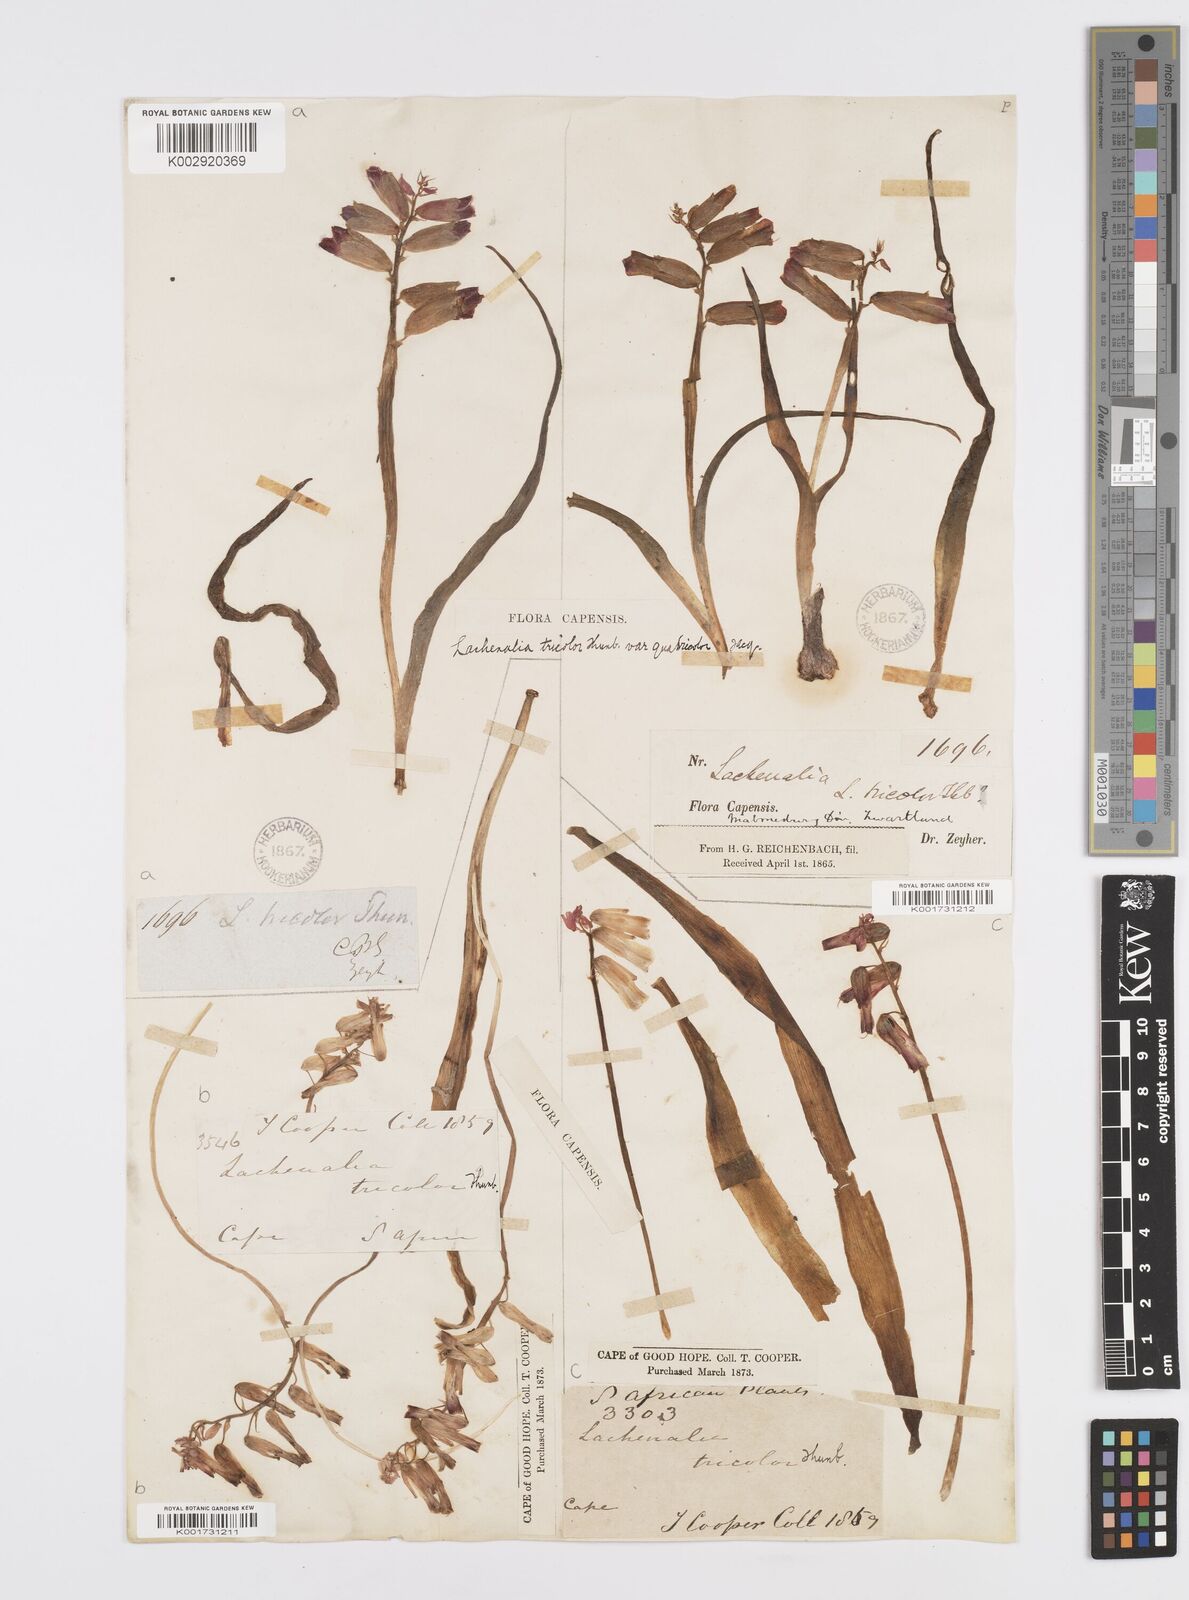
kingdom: Plantae
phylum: Tracheophyta
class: Liliopsida
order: Asparagales
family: Asparagaceae
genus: Lachenalia
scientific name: Lachenalia aloides
